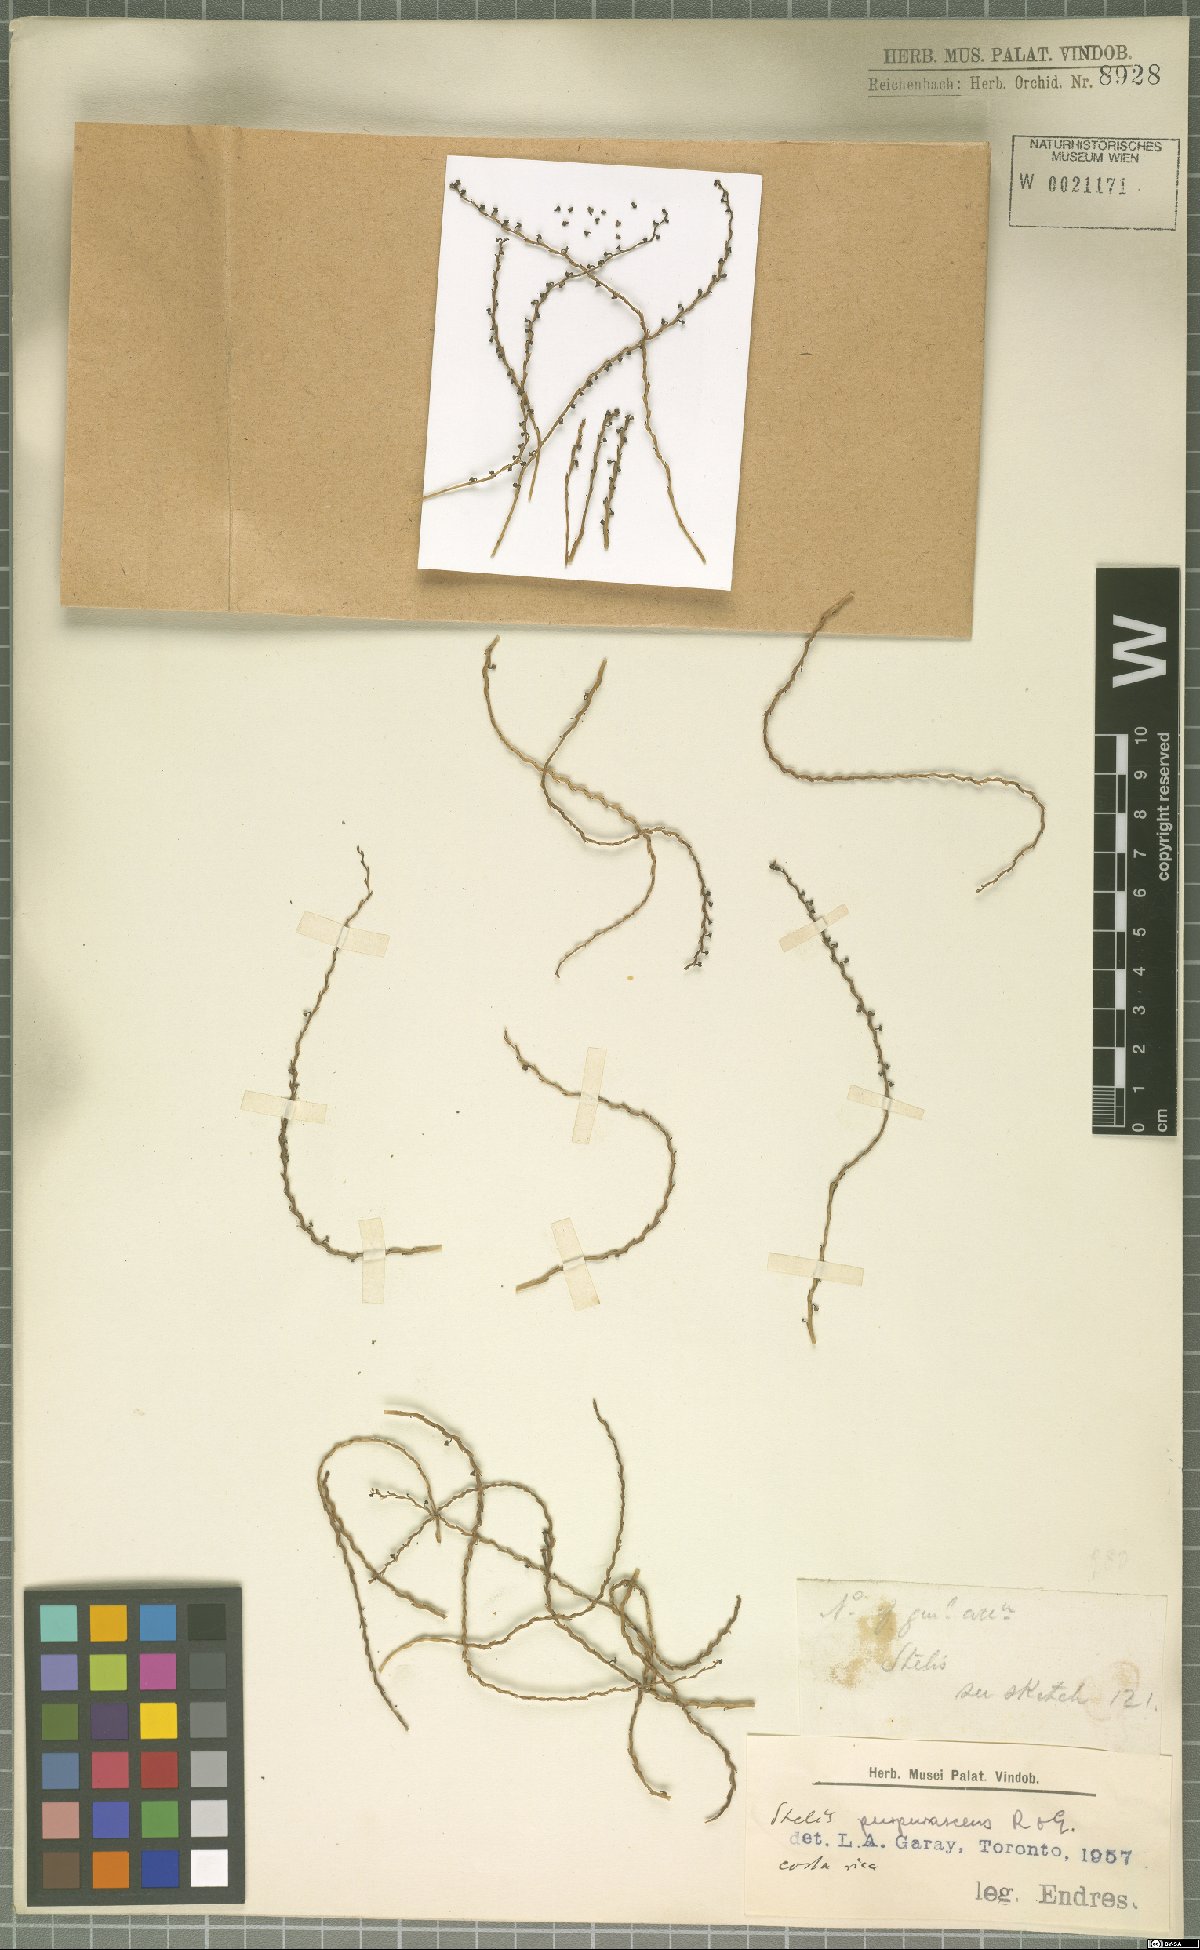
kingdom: Plantae
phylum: Tracheophyta
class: Liliopsida
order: Asparagales
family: Orchidaceae
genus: Stelis
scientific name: Stelis purpurascens
